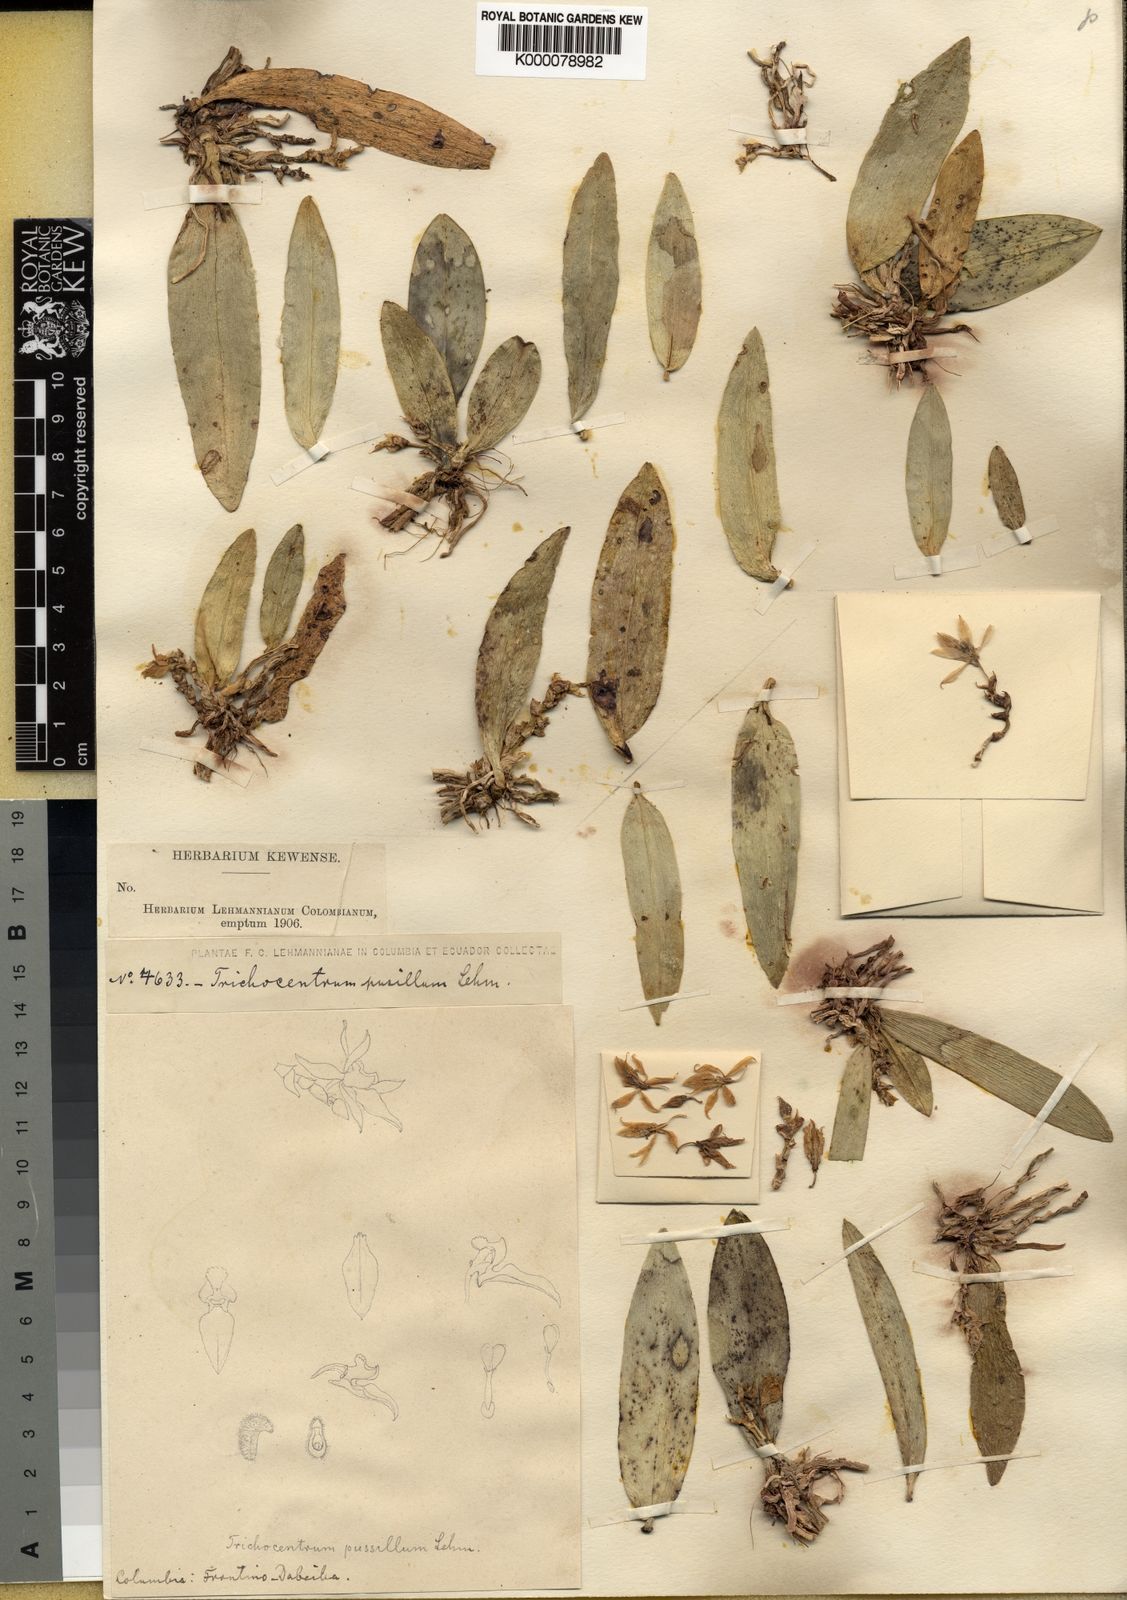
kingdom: Plantae
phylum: Tracheophyta
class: Liliopsida
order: Asparagales
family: Orchidaceae
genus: Trichocentrum
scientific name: Trichocentrum
